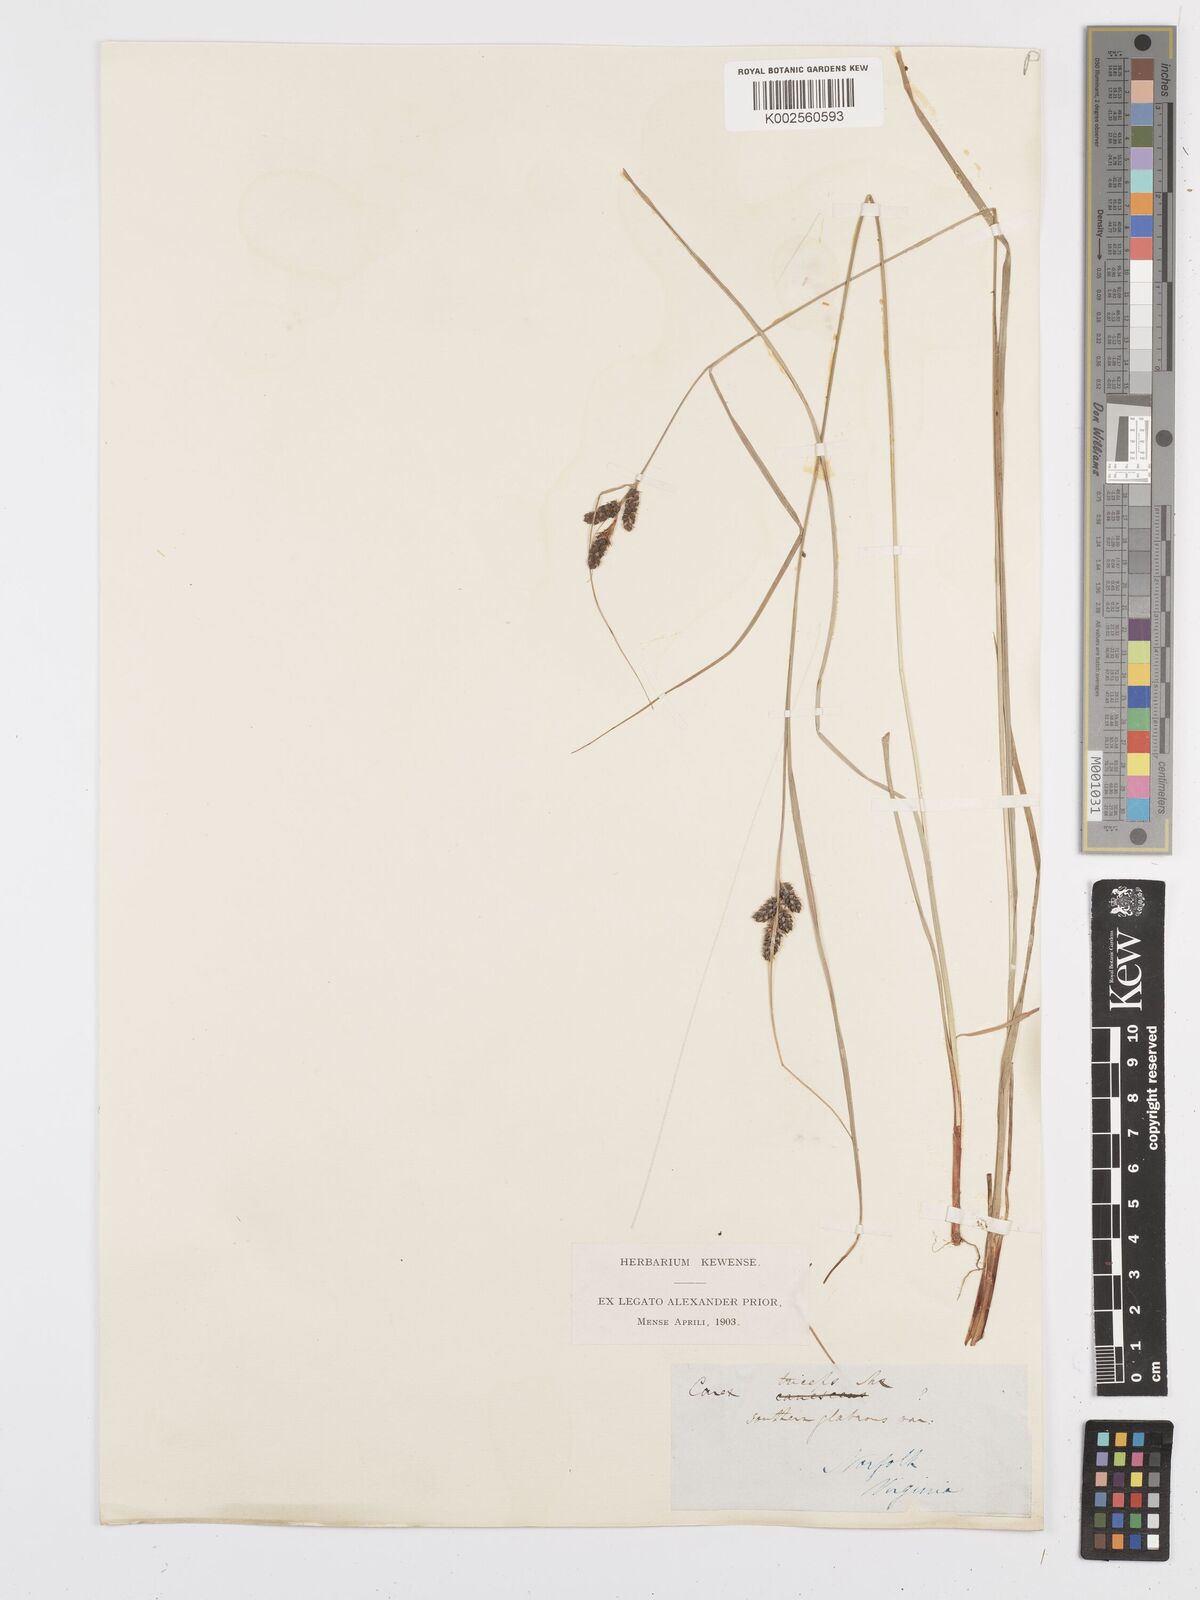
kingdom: Plantae
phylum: Tracheophyta
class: Liliopsida
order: Poales
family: Cyperaceae
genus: Carex
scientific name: Carex complanata
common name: Hirsute sedge
